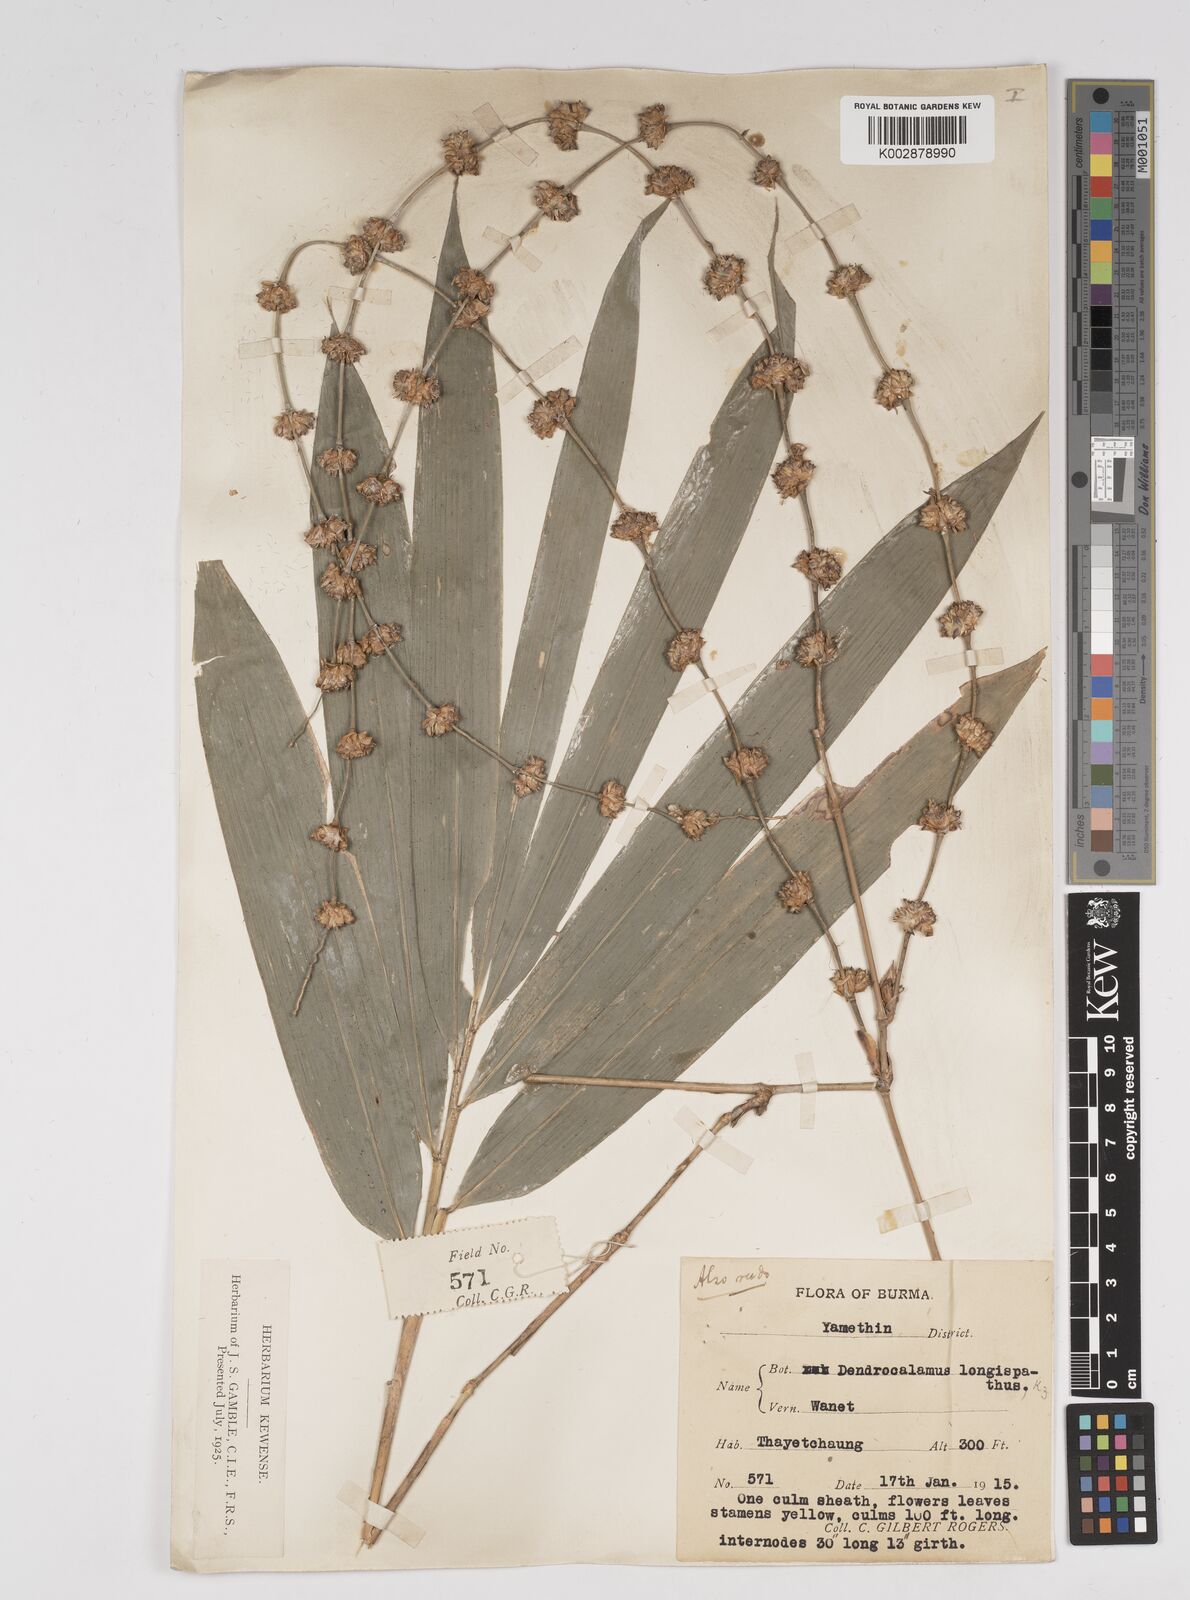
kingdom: Plantae
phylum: Tracheophyta
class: Liliopsida
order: Poales
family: Poaceae
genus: Dendrocalamus
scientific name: Dendrocalamus longispathus
